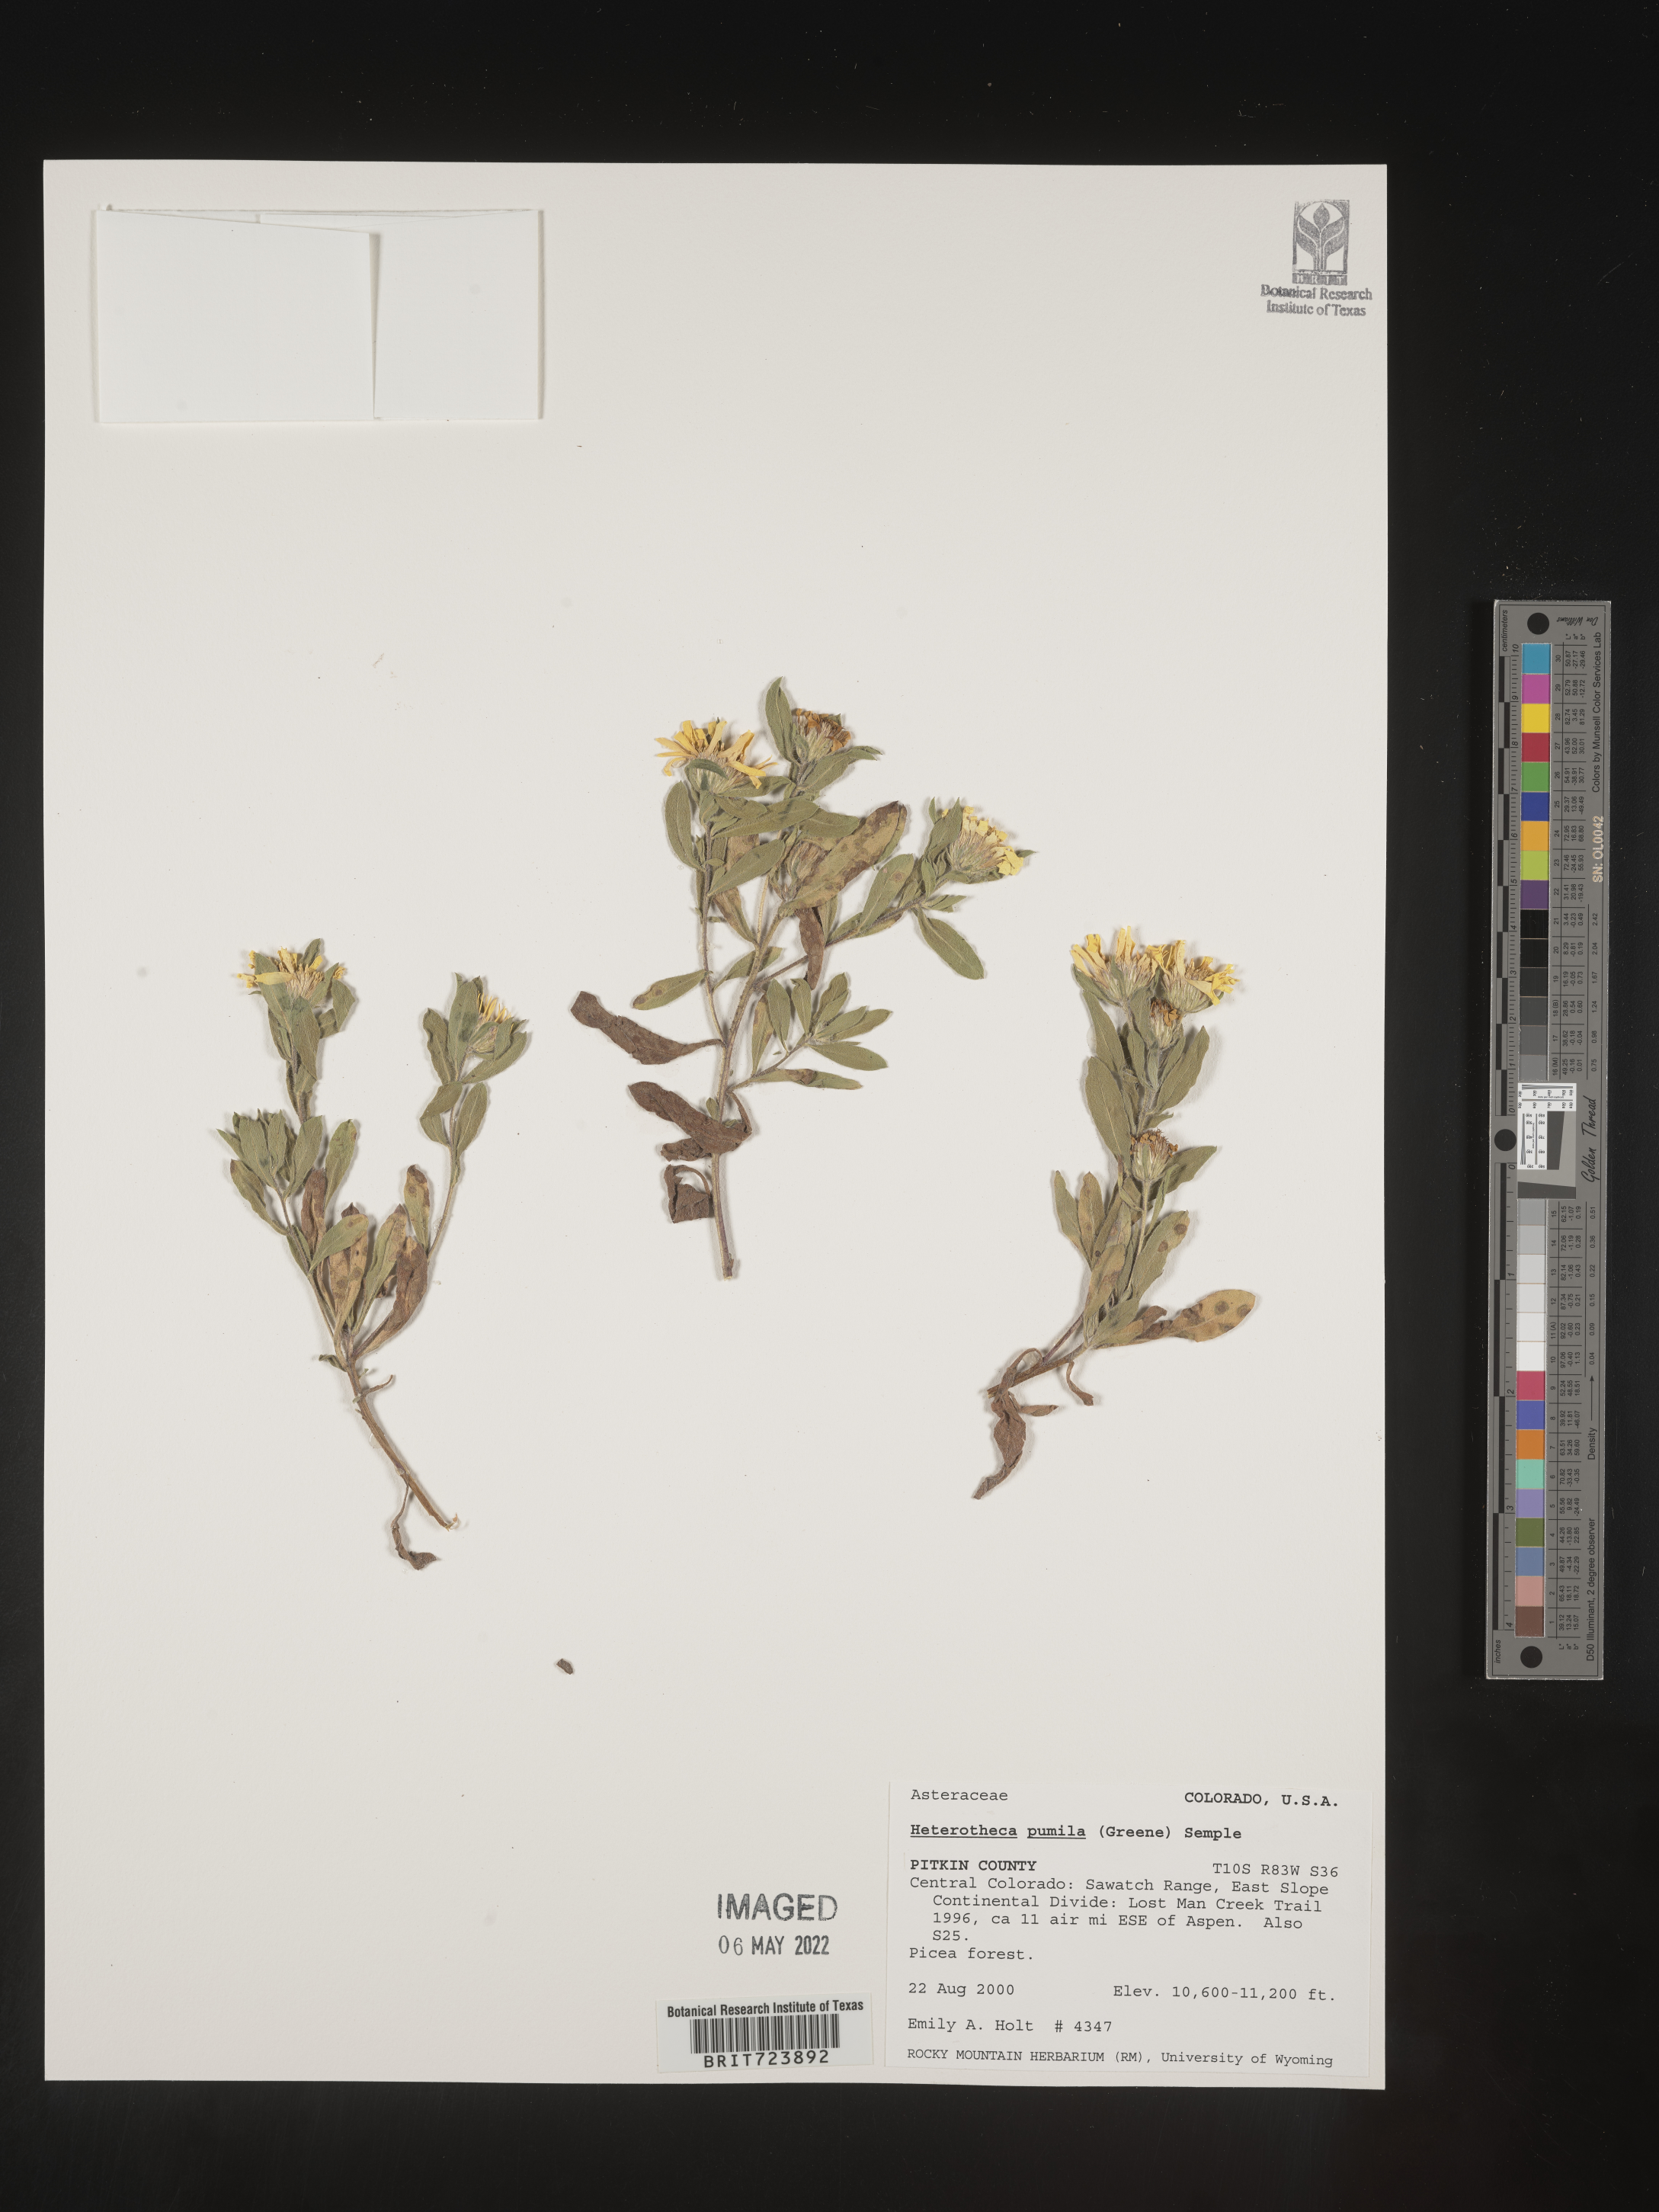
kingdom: Plantae
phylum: Tracheophyta
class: Magnoliopsida
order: Asterales
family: Asteraceae
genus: Heterotheca
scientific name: Heterotheca pumila
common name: Alpine golden-aster
